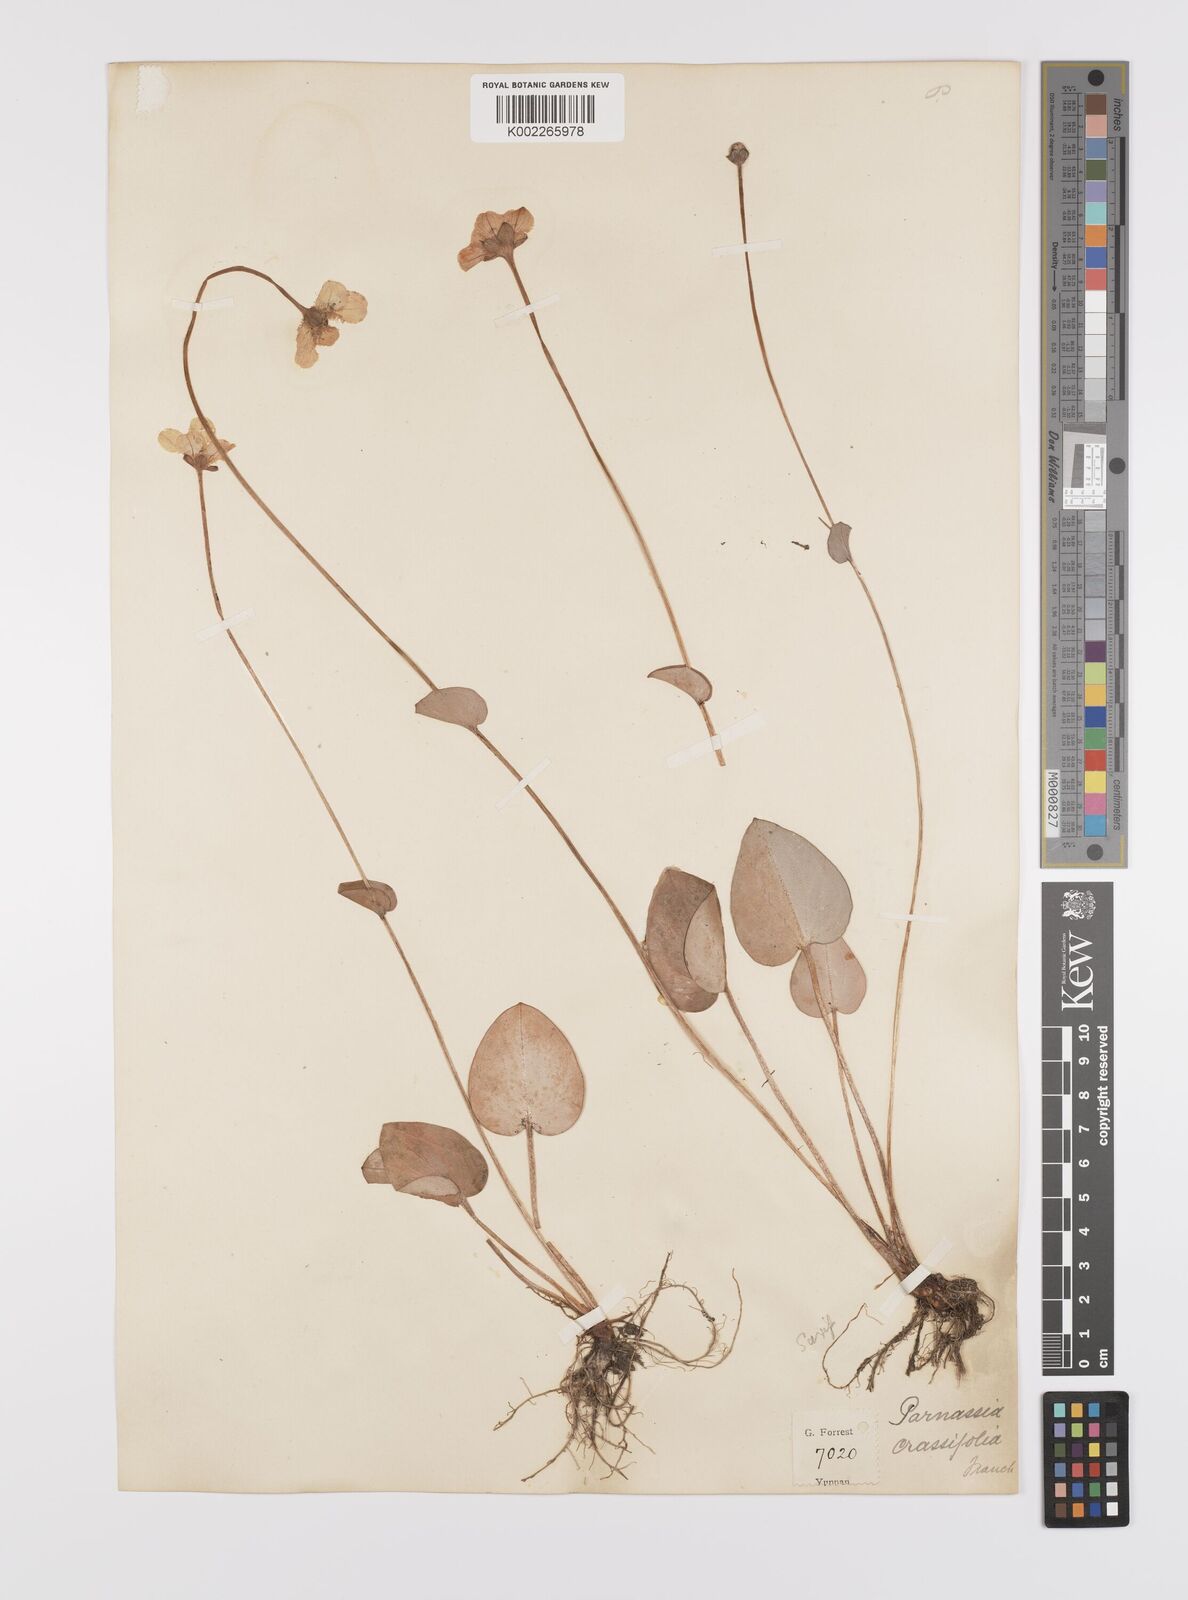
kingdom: Plantae
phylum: Tracheophyta
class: Magnoliopsida
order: Celastrales
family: Parnassiaceae
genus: Parnassia
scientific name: Parnassia crassifolia
